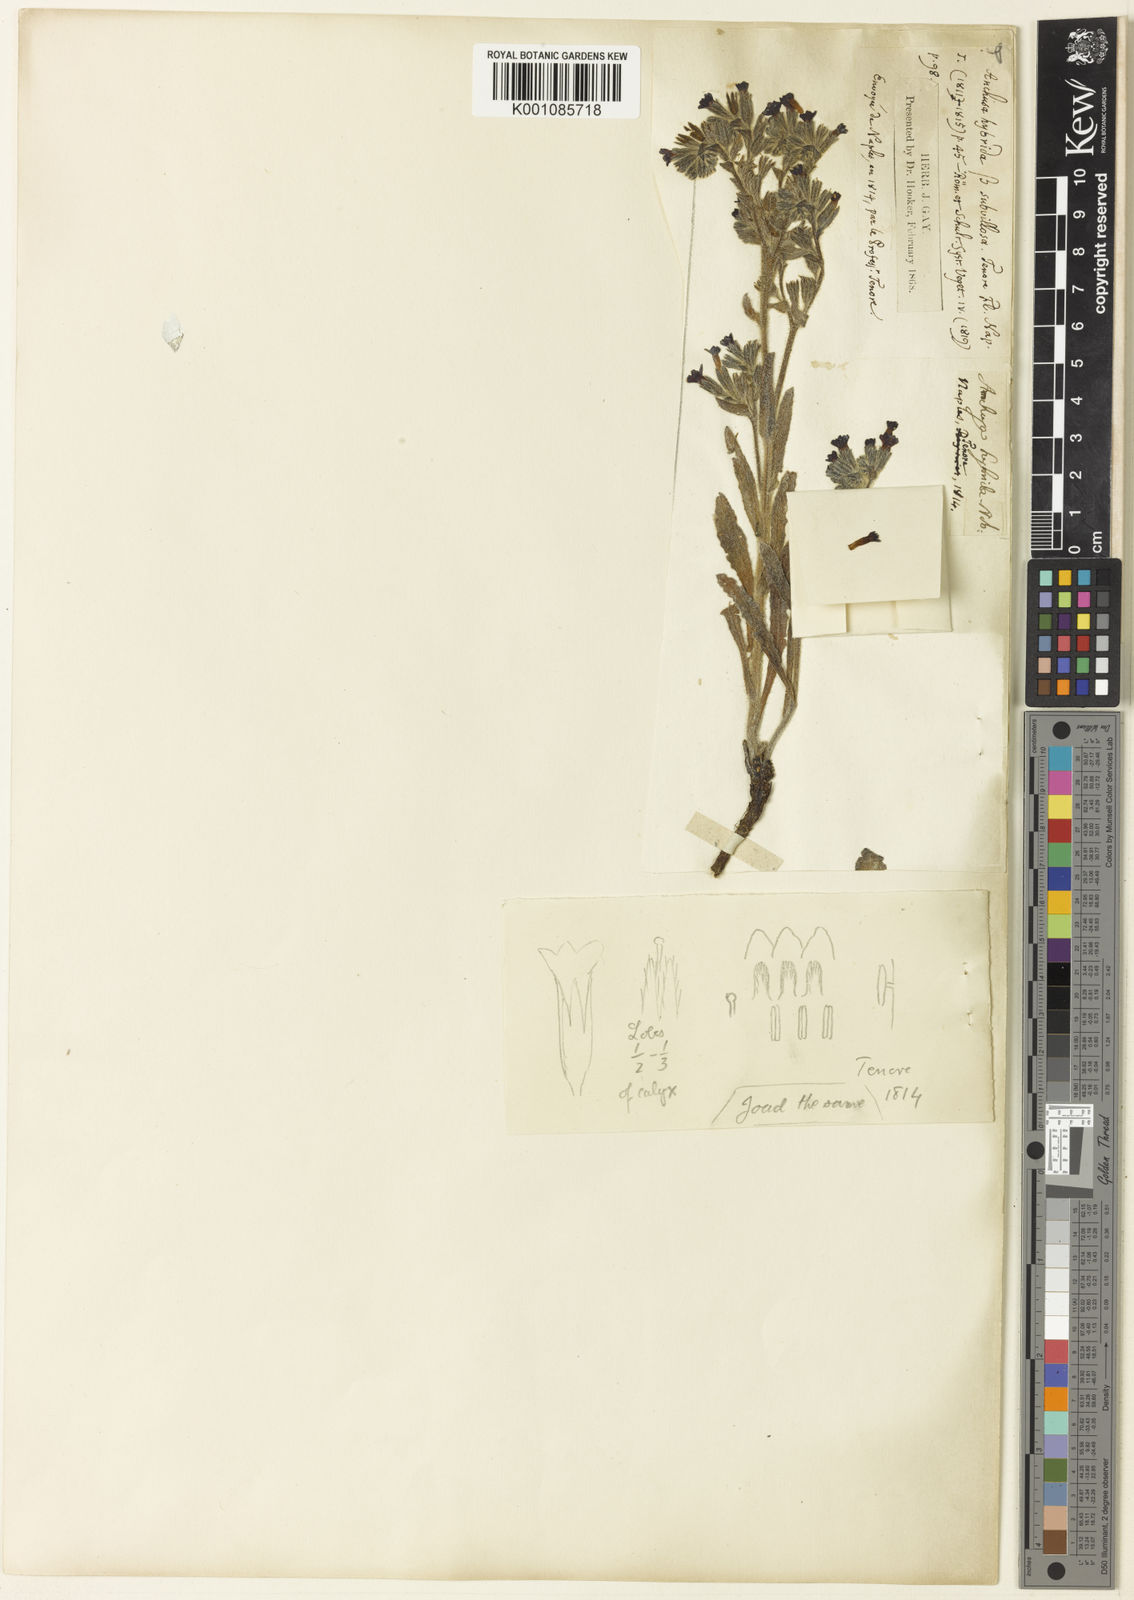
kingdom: Plantae
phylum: Tracheophyta
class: Magnoliopsida
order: Boraginales
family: Boraginaceae
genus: Anchusa
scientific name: Anchusa officinalis
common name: Alkanet
